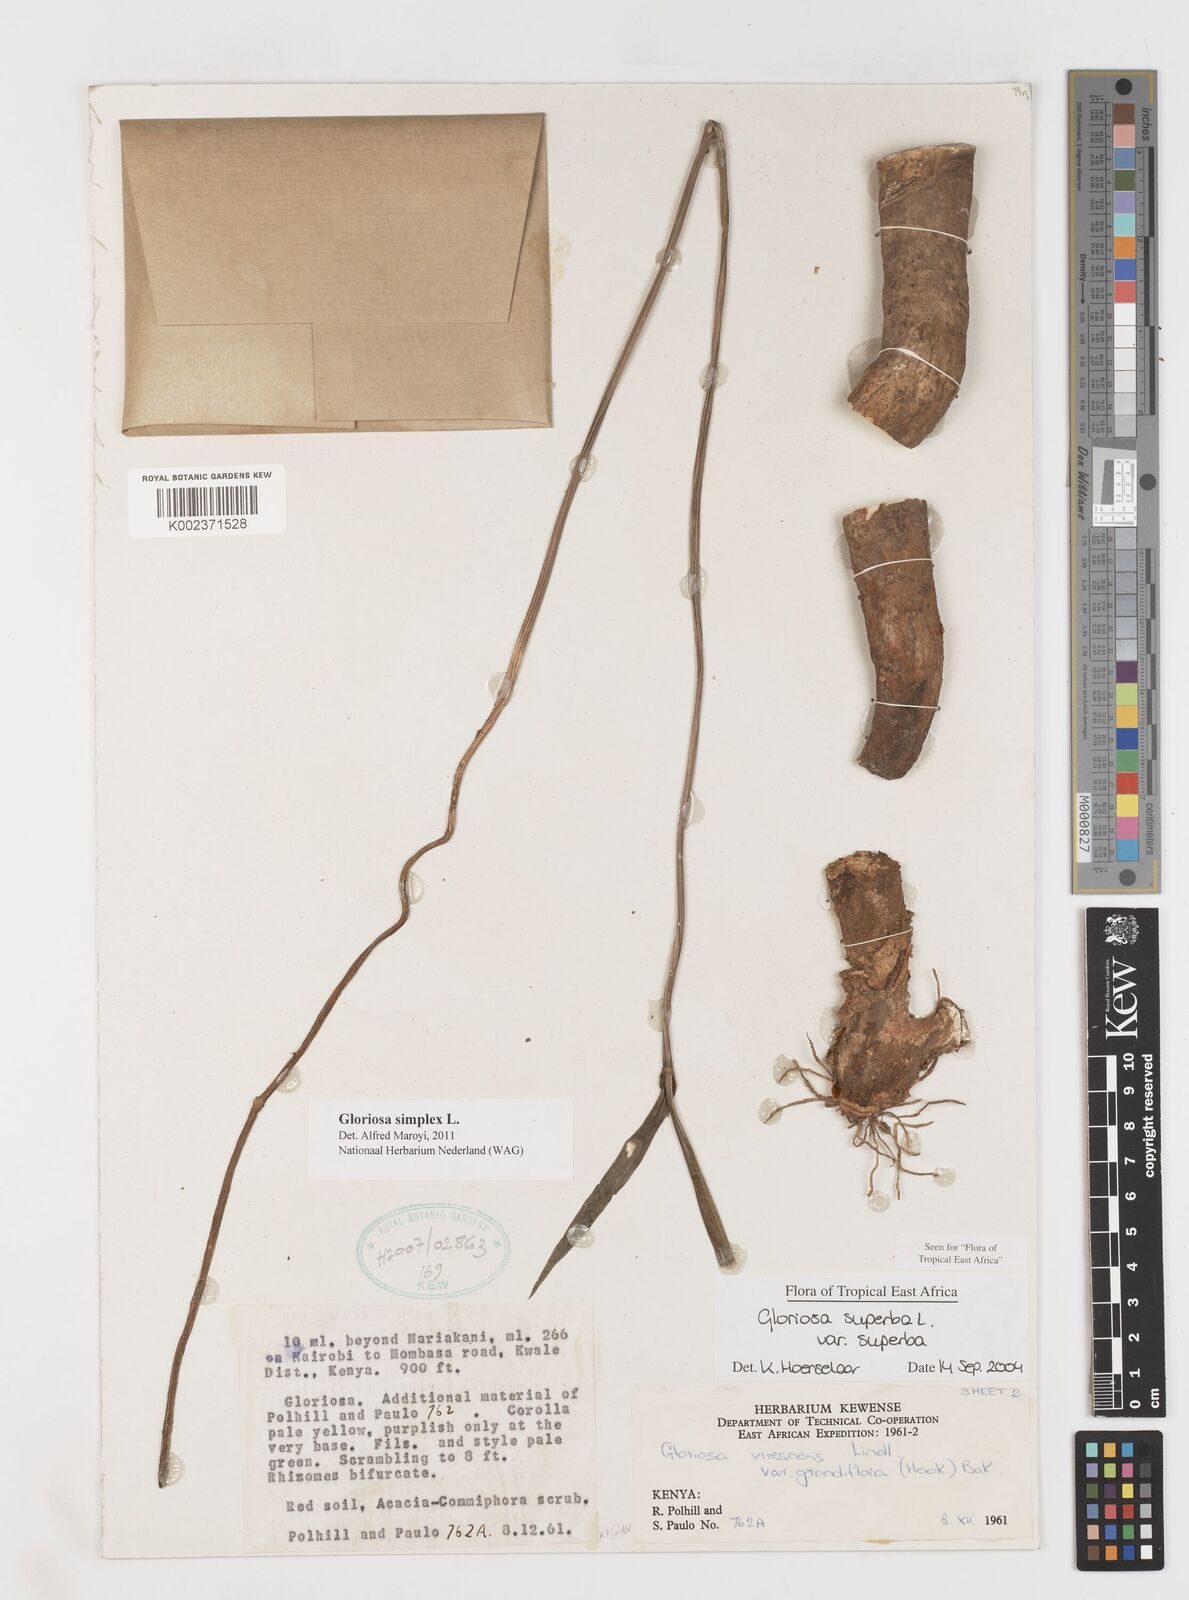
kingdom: Plantae
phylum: Tracheophyta
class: Liliopsida
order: Liliales
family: Colchicaceae
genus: Gloriosa
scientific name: Gloriosa simplex
